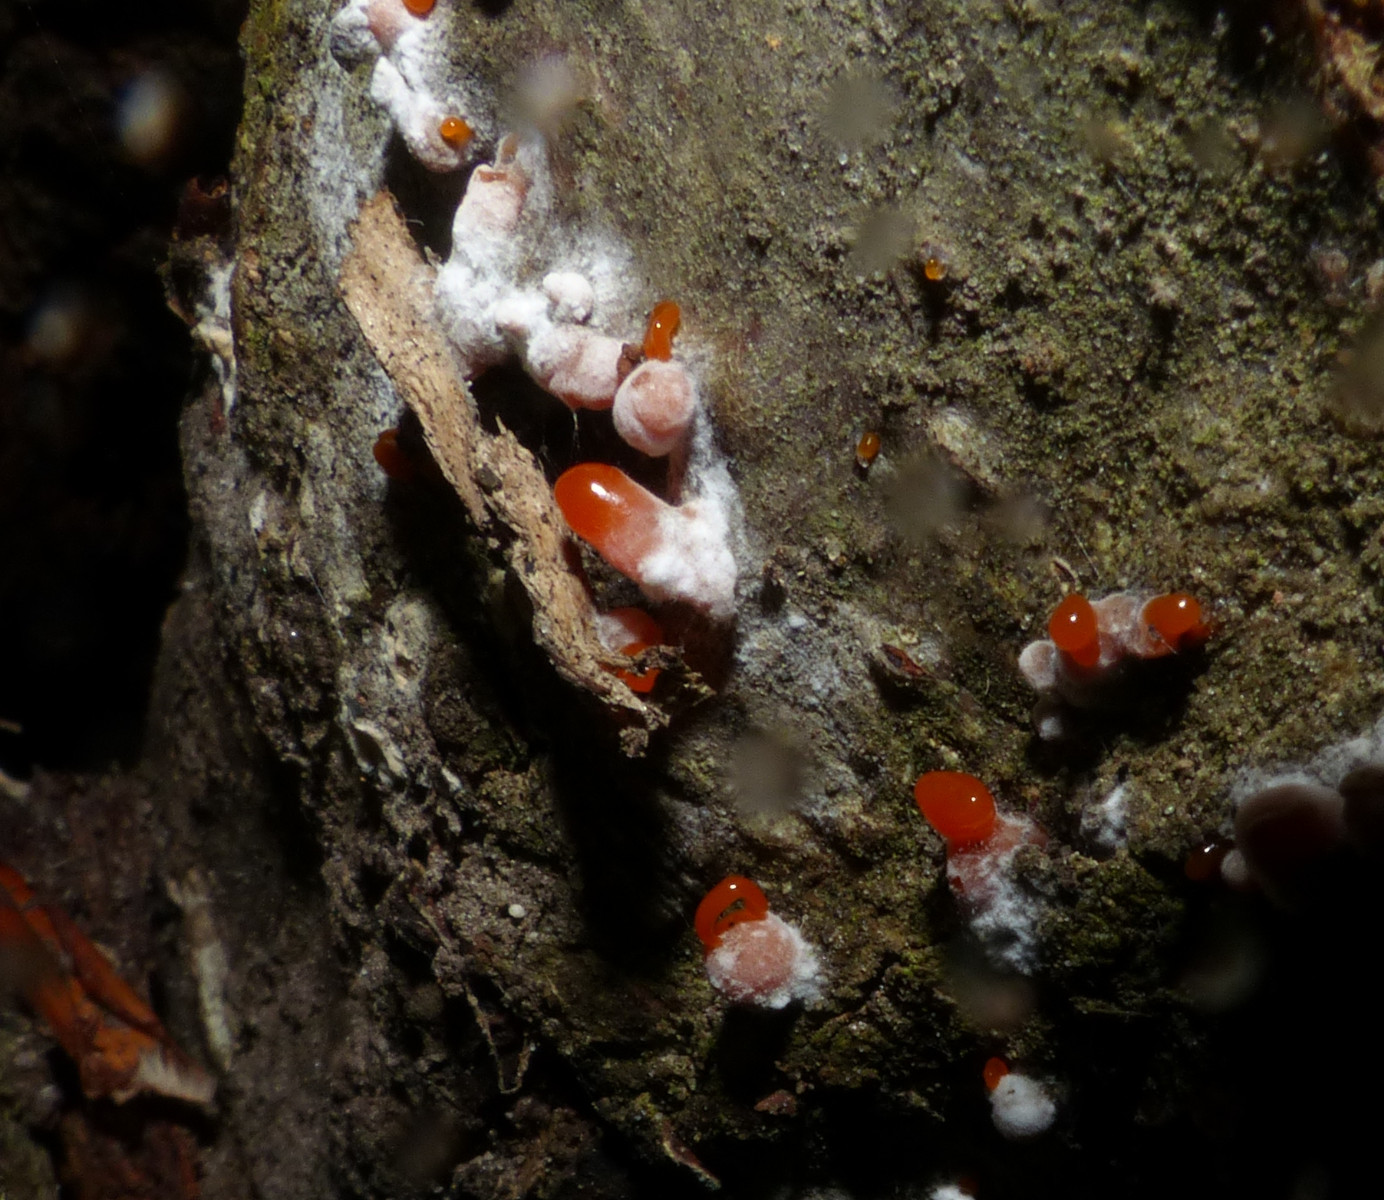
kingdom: Fungi
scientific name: Fungi
